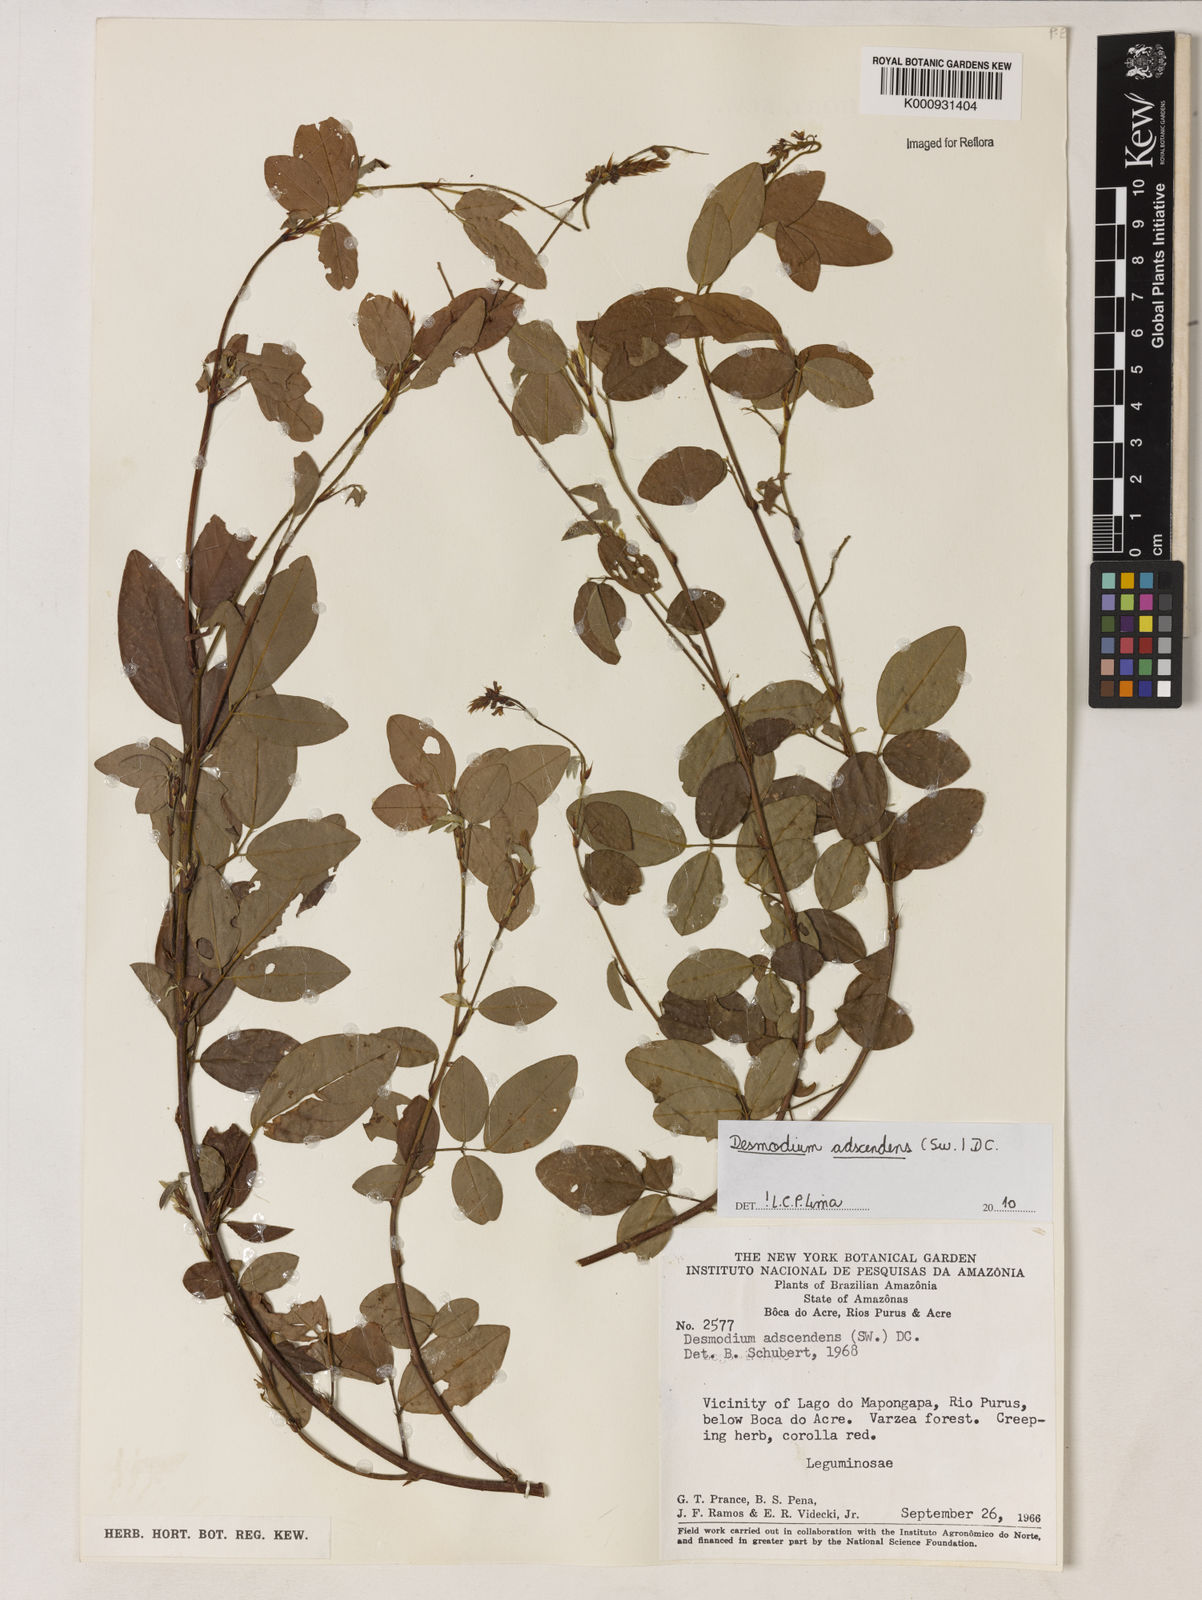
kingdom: Plantae
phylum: Tracheophyta
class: Magnoliopsida
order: Fabales
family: Fabaceae
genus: Grona
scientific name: Grona adscendens
